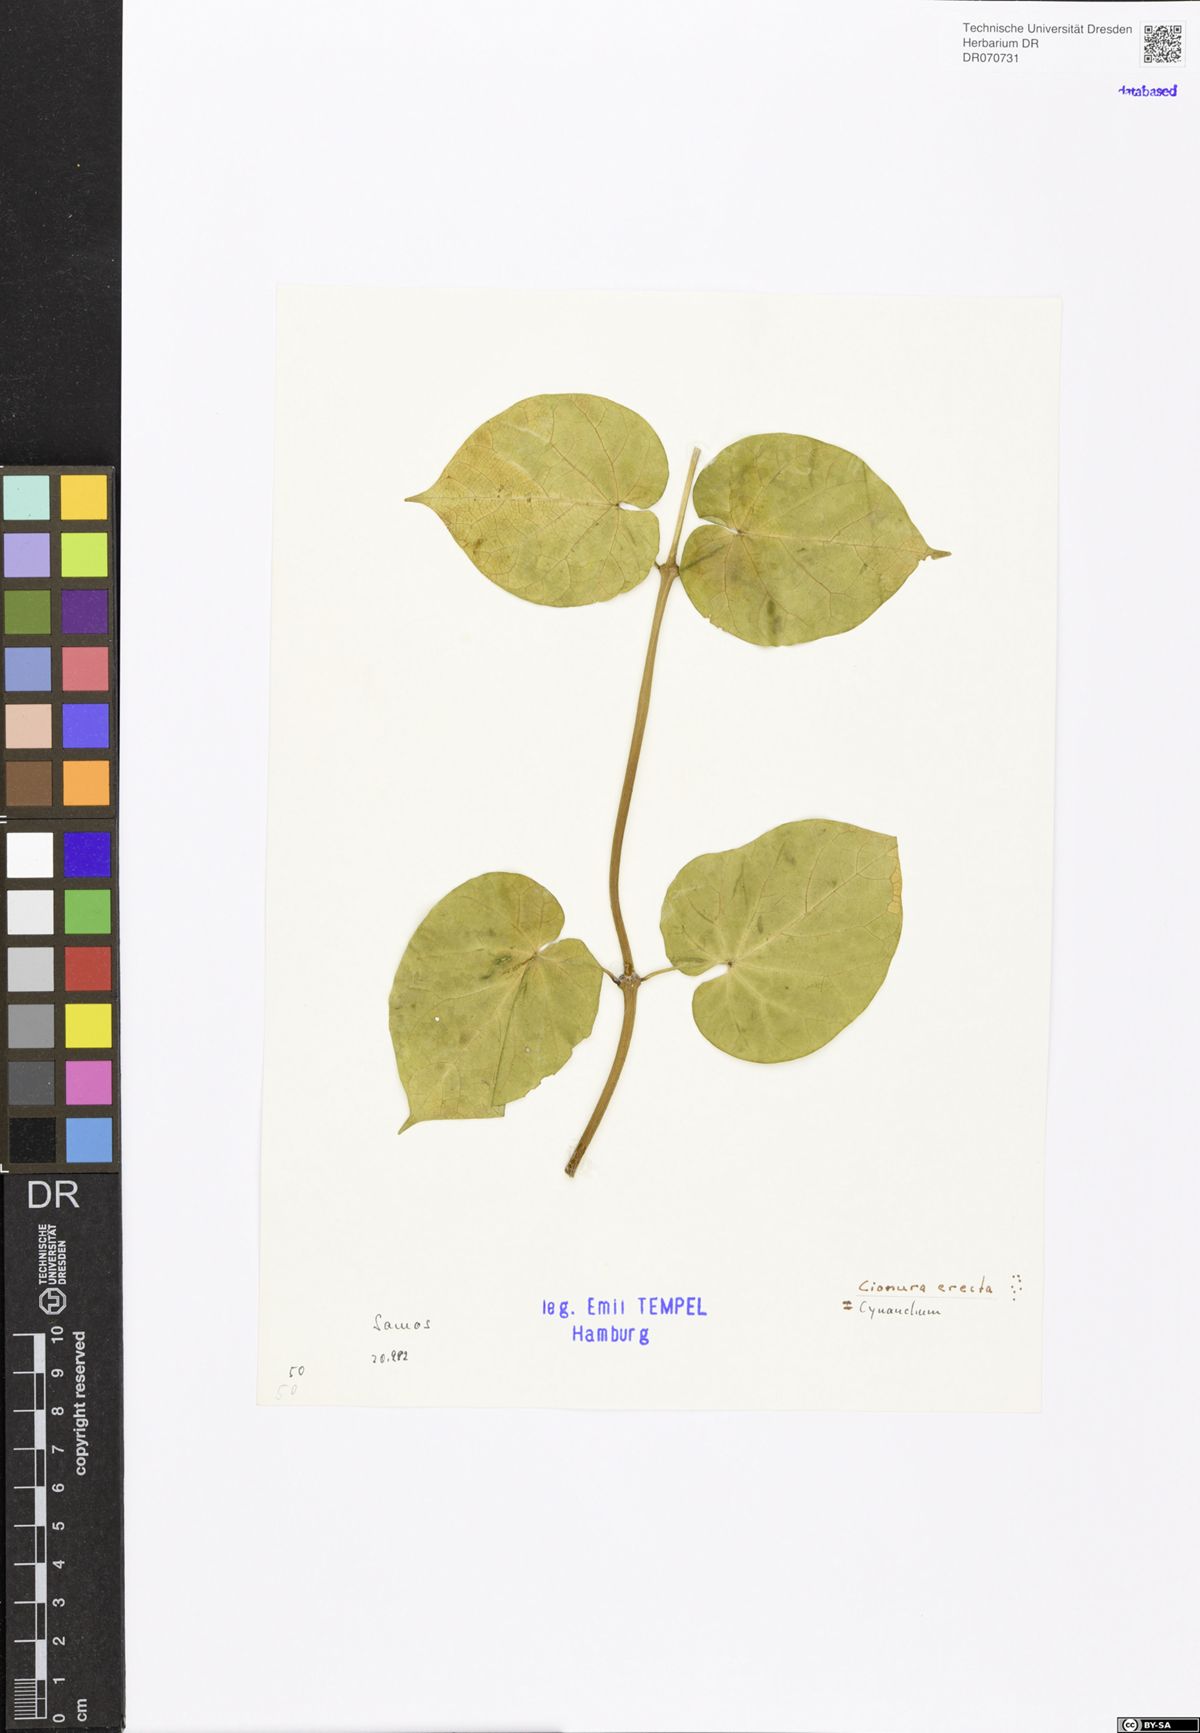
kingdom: Plantae
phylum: Tracheophyta
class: Magnoliopsida
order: Gentianales
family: Apocynaceae
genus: Cionura
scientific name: Cionura erecta
